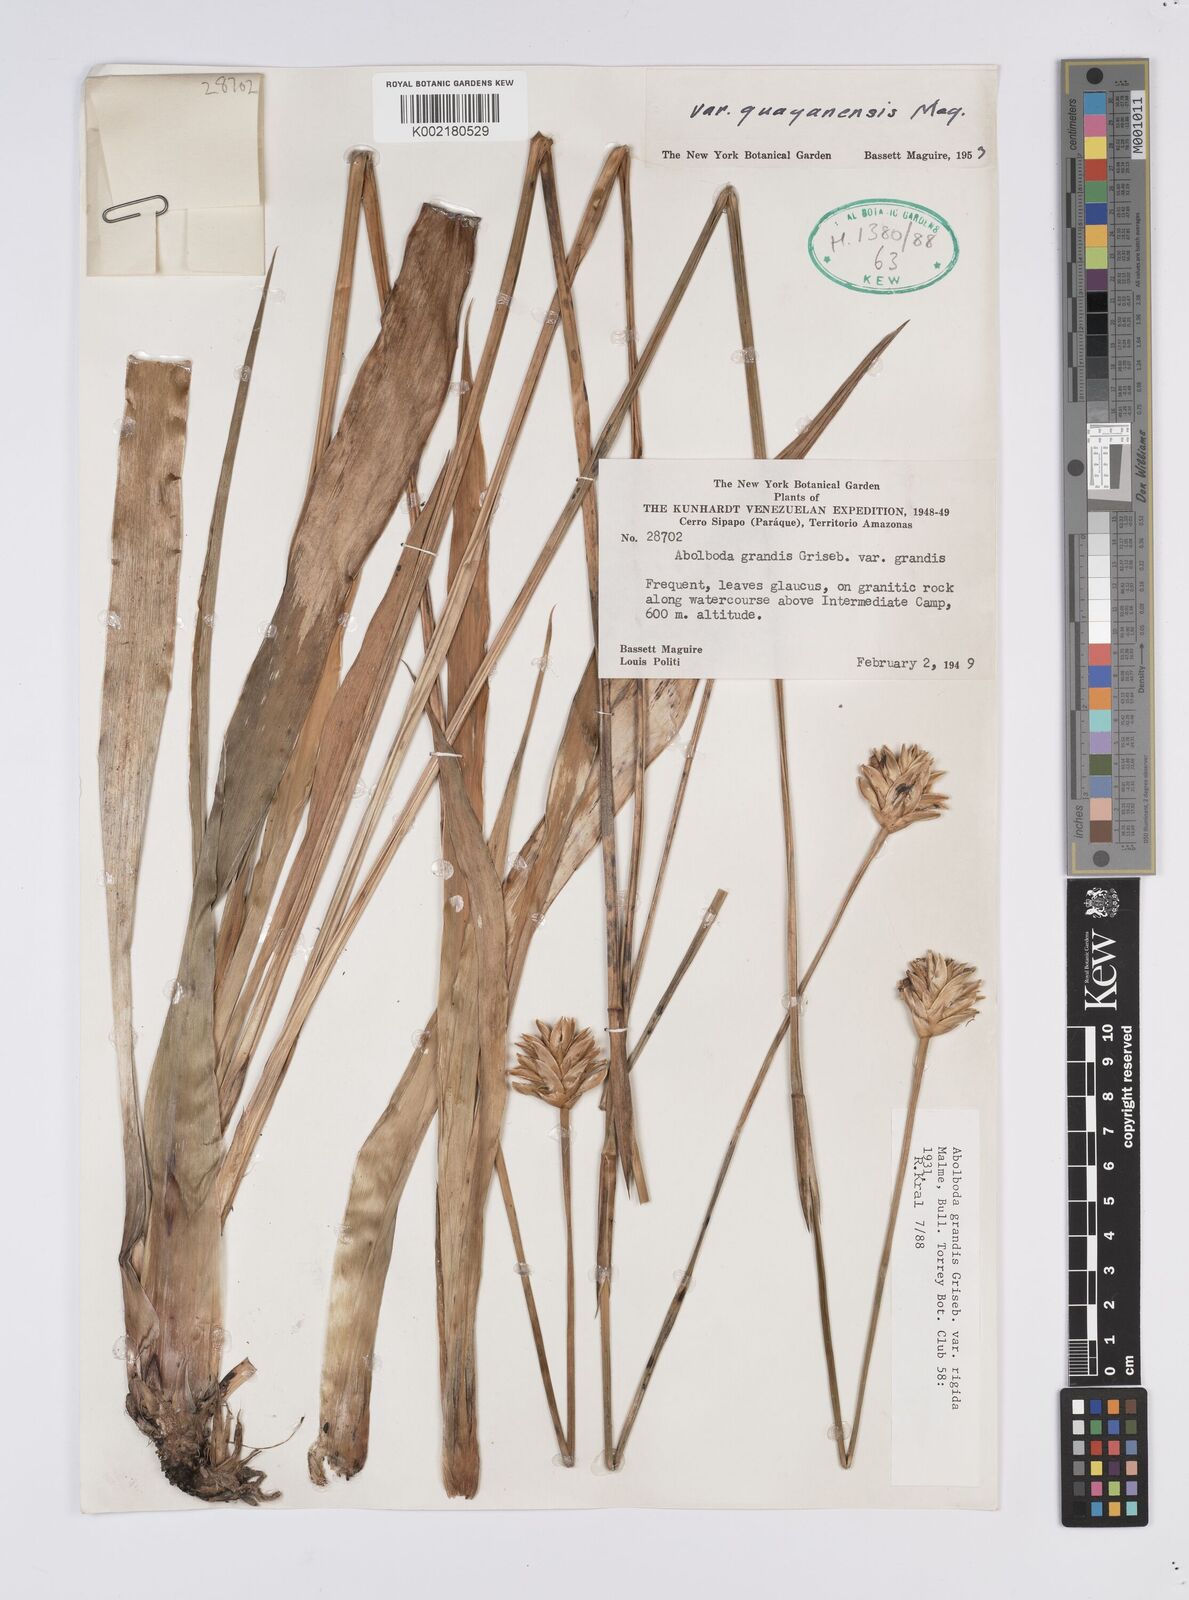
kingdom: Plantae
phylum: Tracheophyta
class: Liliopsida
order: Poales
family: Xyridaceae
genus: Abolboda
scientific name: Abolboda grandis
